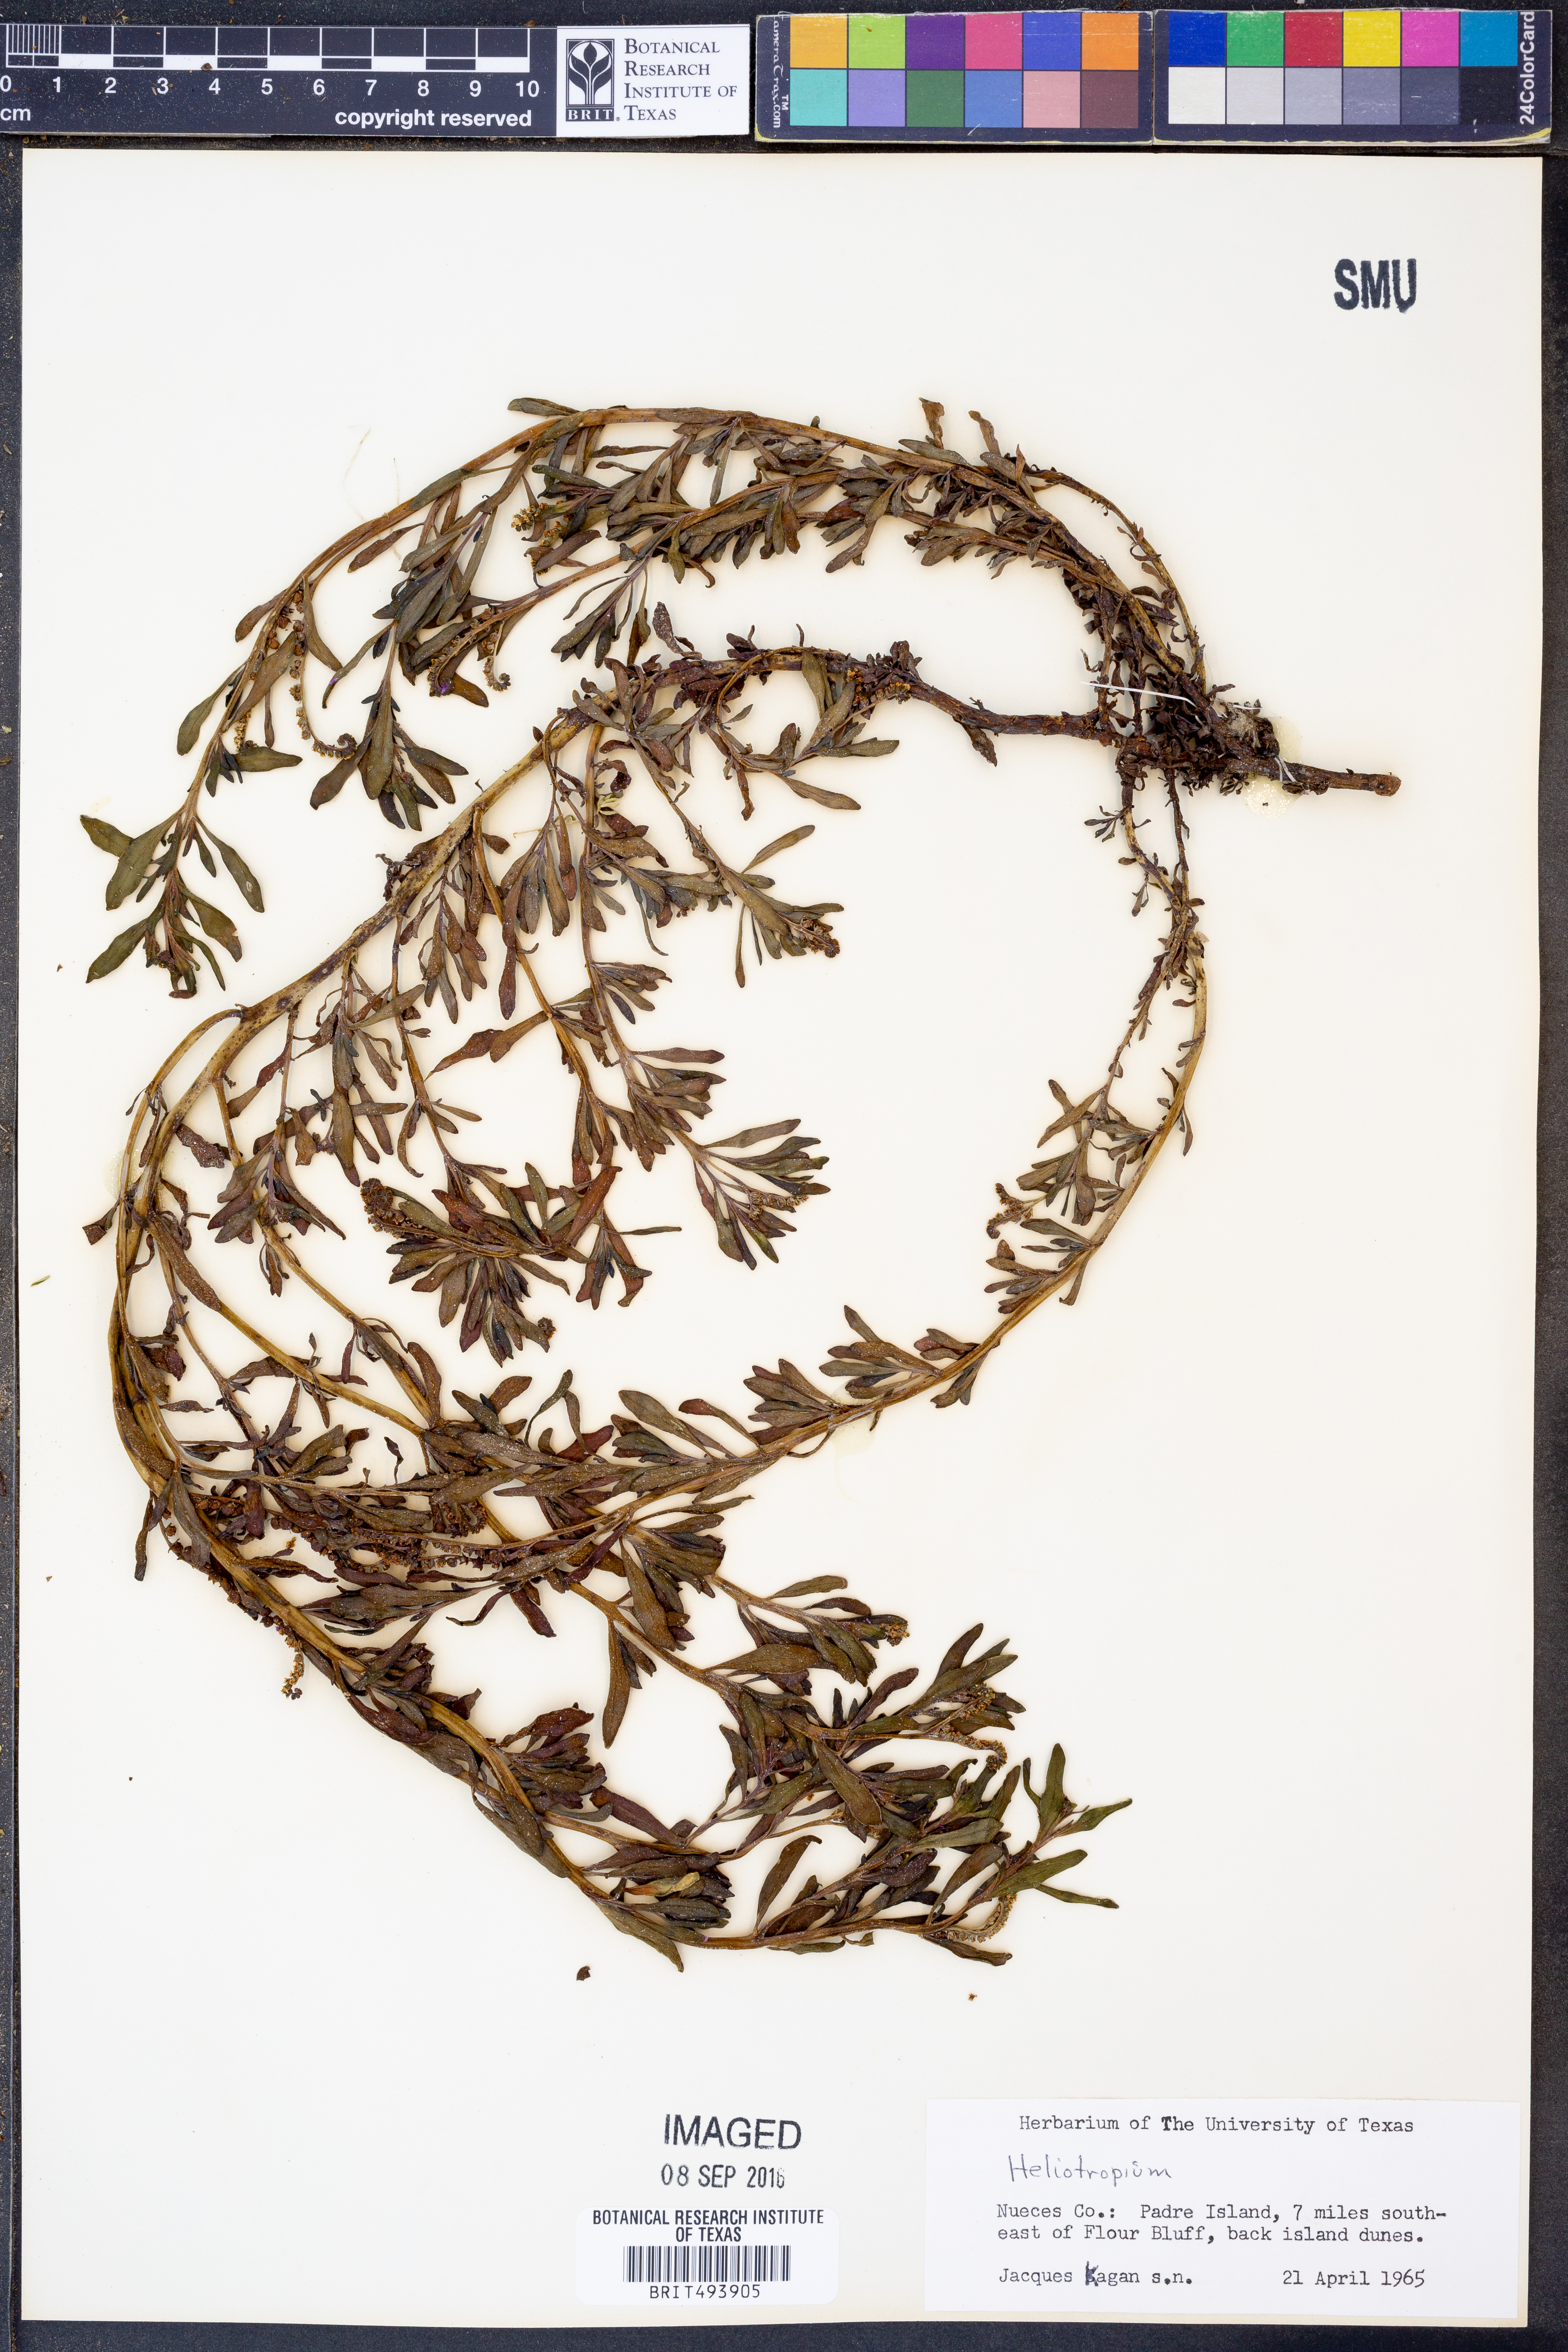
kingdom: Plantae
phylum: Tracheophyta
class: Magnoliopsida
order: Boraginales
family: Heliotropiaceae
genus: Heliotropium
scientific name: Heliotropium
